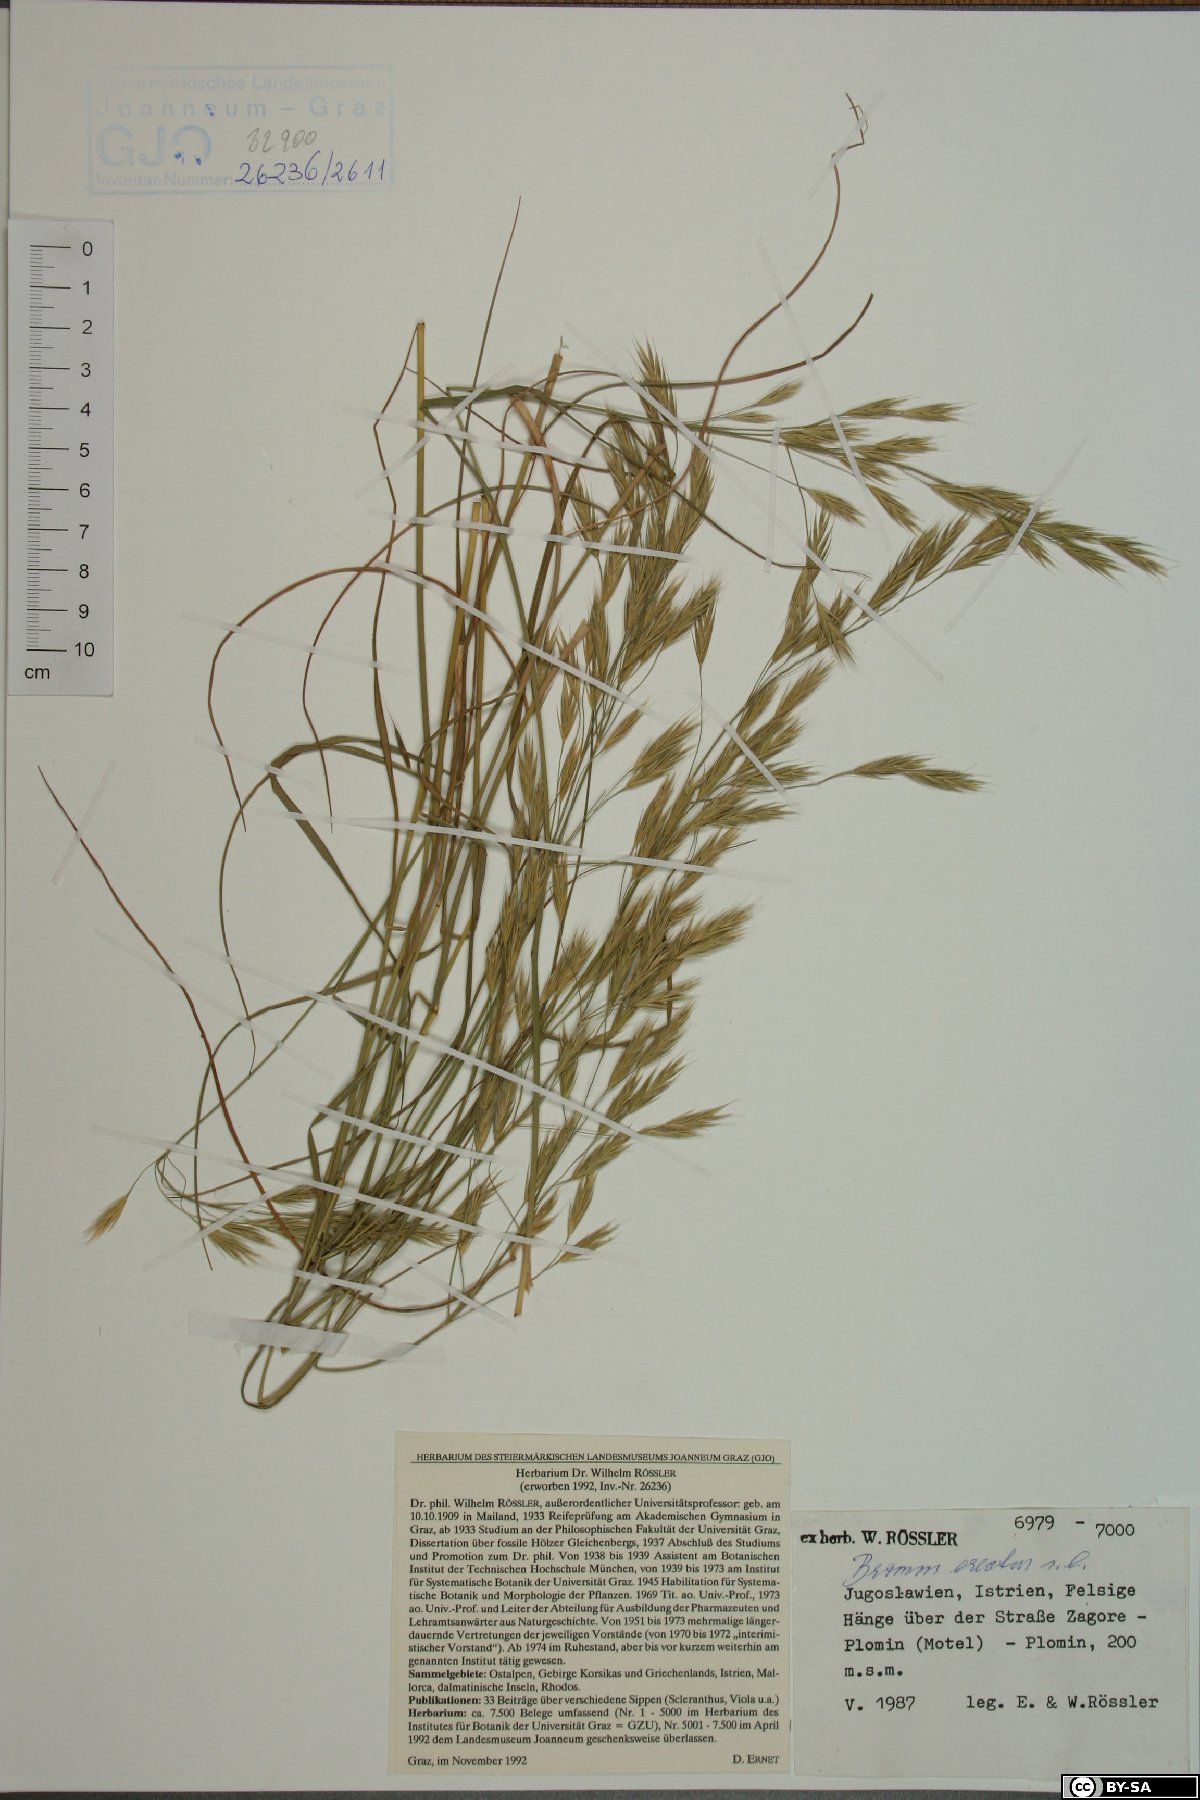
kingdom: Plantae
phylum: Tracheophyta
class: Liliopsida
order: Poales
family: Poaceae
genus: Bromus
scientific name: Bromus erectus
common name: Erect brome
